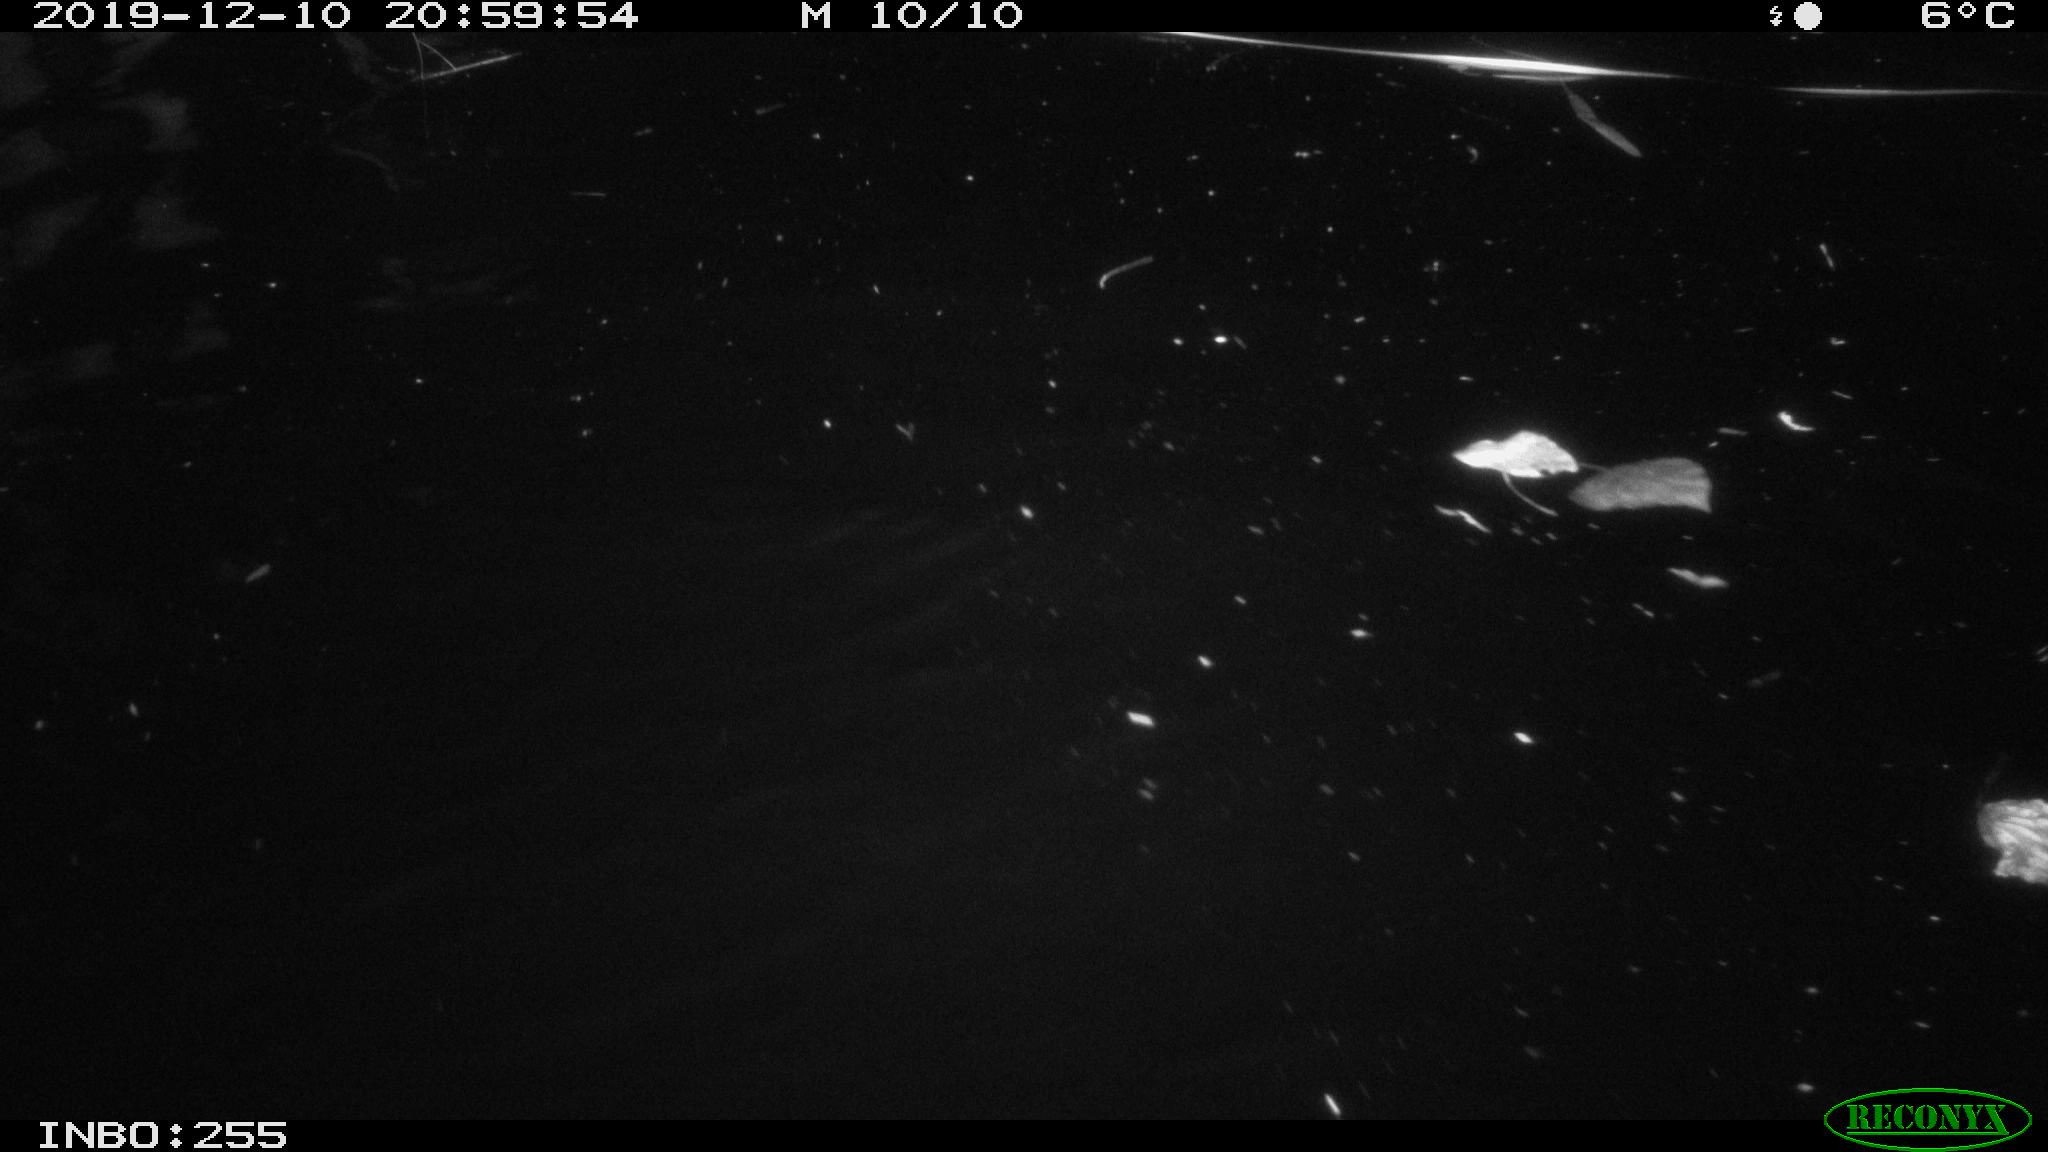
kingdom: Animalia
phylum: Chordata
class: Aves
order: Anseriformes
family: Anatidae
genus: Anas
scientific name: Anas platyrhynchos
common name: Mallard
